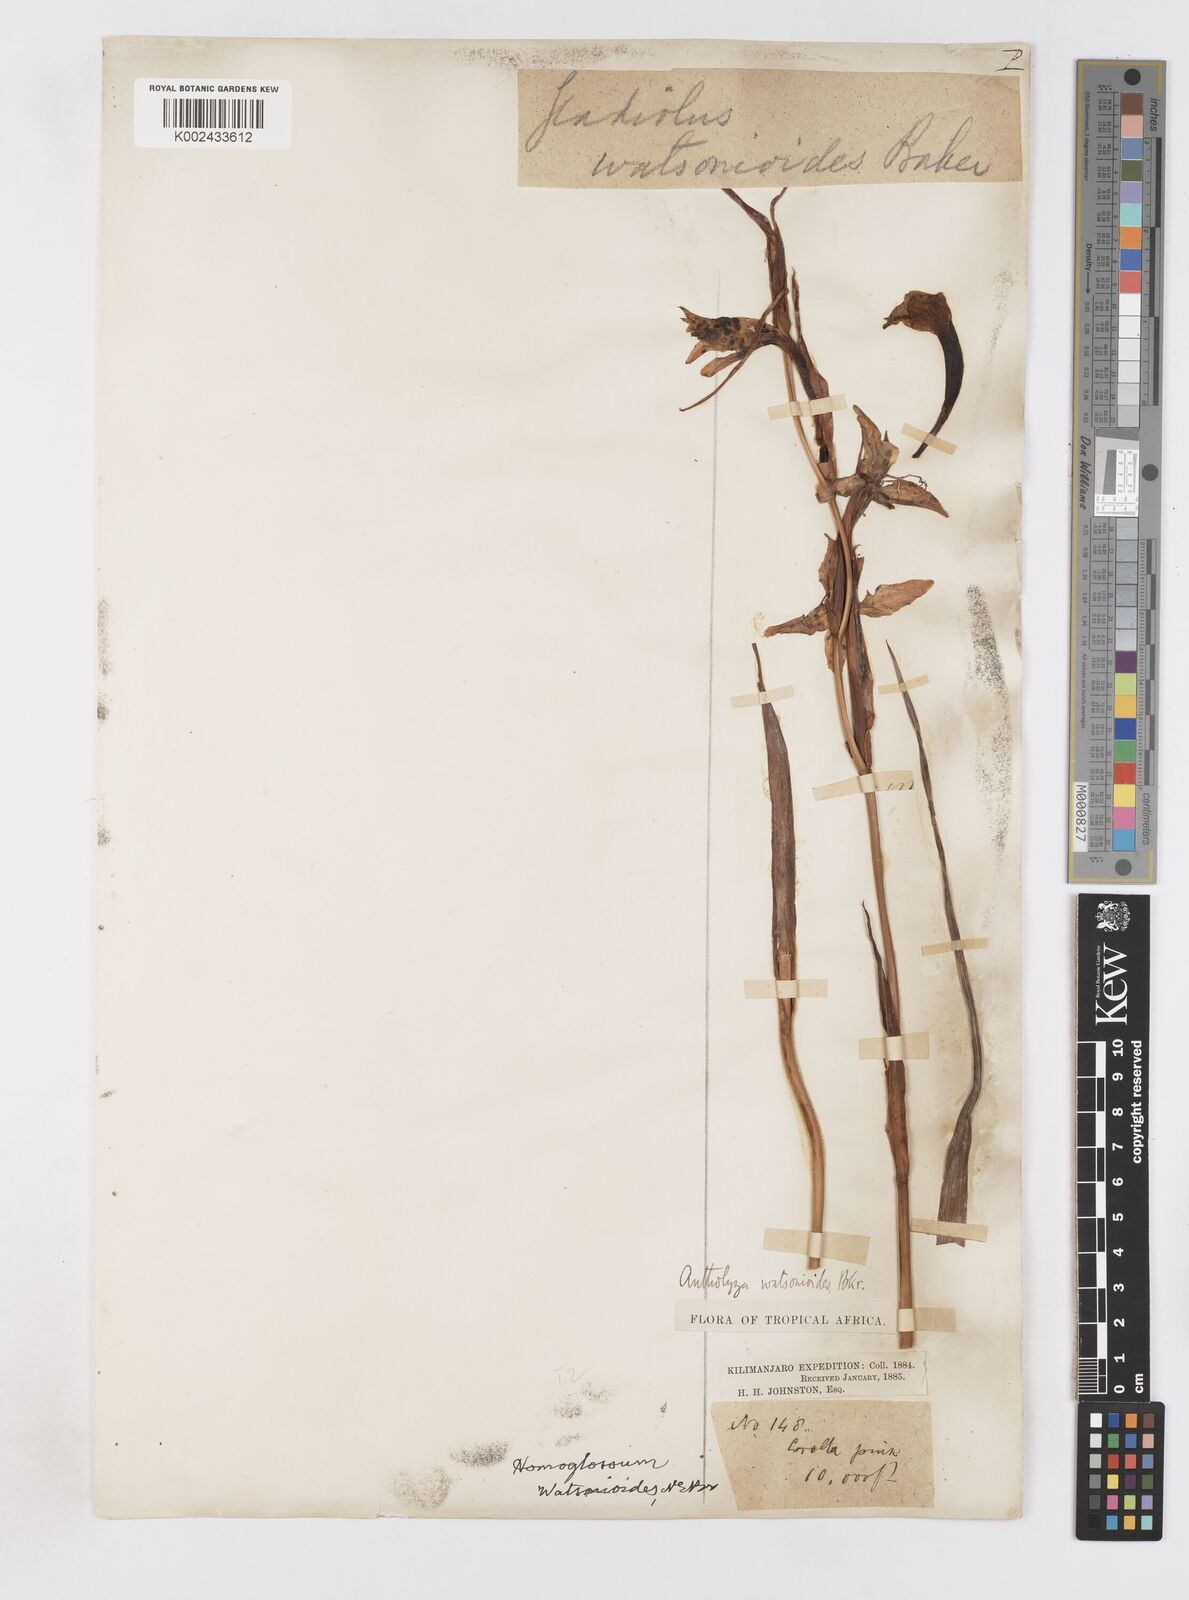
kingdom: Plantae
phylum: Tracheophyta
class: Liliopsida
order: Asparagales
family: Iridaceae
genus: Gladiolus
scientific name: Gladiolus watsonioides
